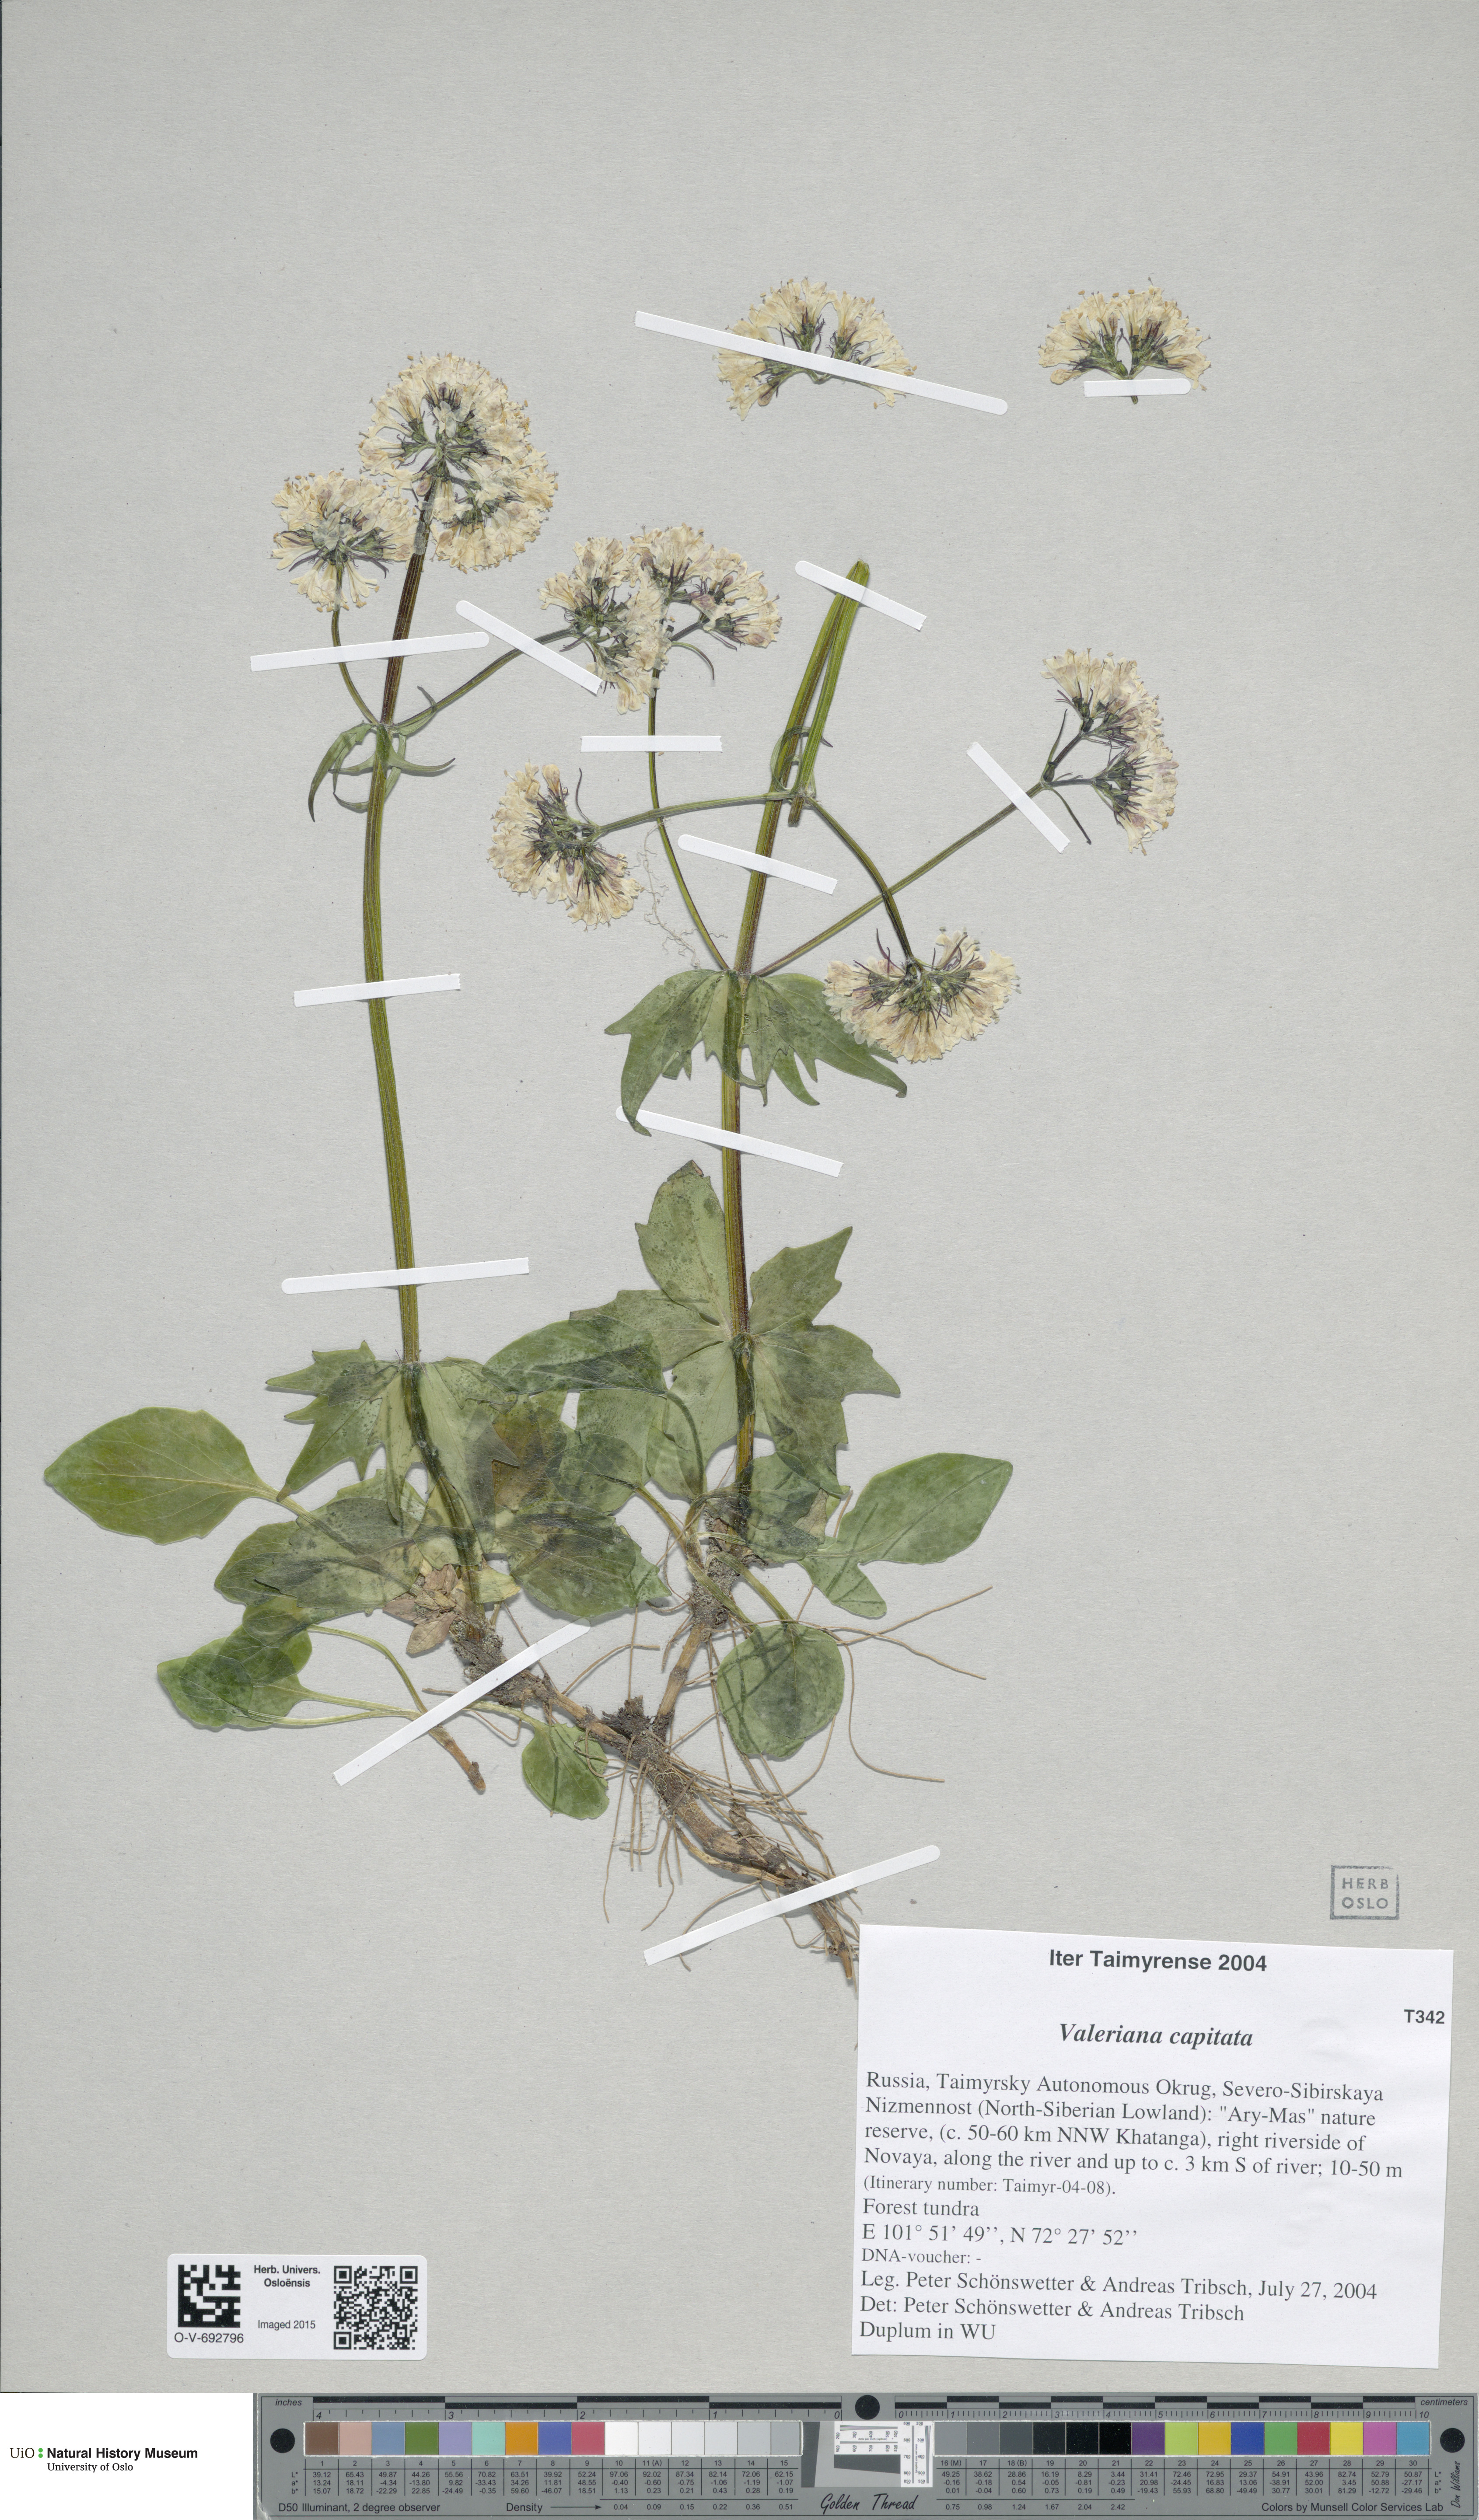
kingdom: Plantae
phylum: Tracheophyta
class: Magnoliopsida
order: Dipsacales
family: Caprifoliaceae
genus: Valeriana
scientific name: Valeriana capitata
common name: Capitate valerian
